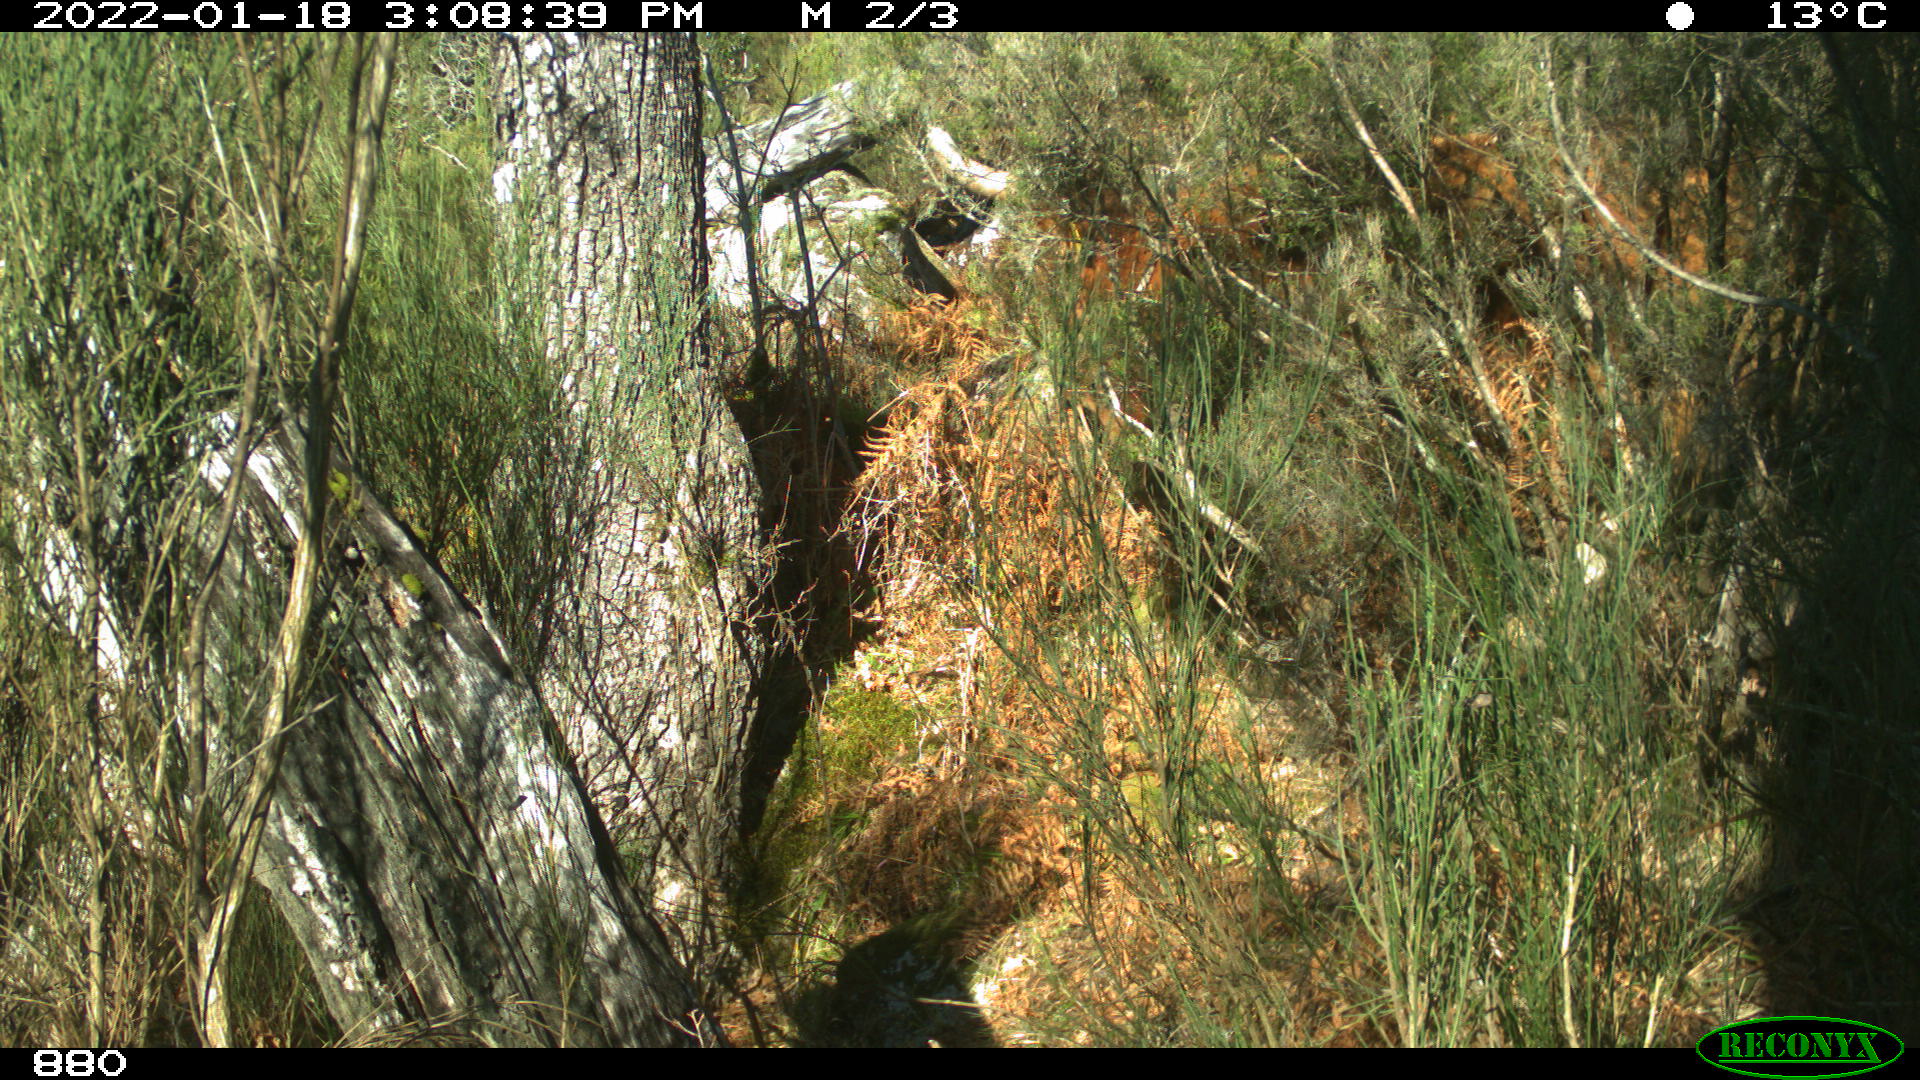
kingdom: Animalia
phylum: Chordata
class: Mammalia
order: Artiodactyla
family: Bovidae
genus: Bos
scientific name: Bos taurus
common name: Domesticated cattle
